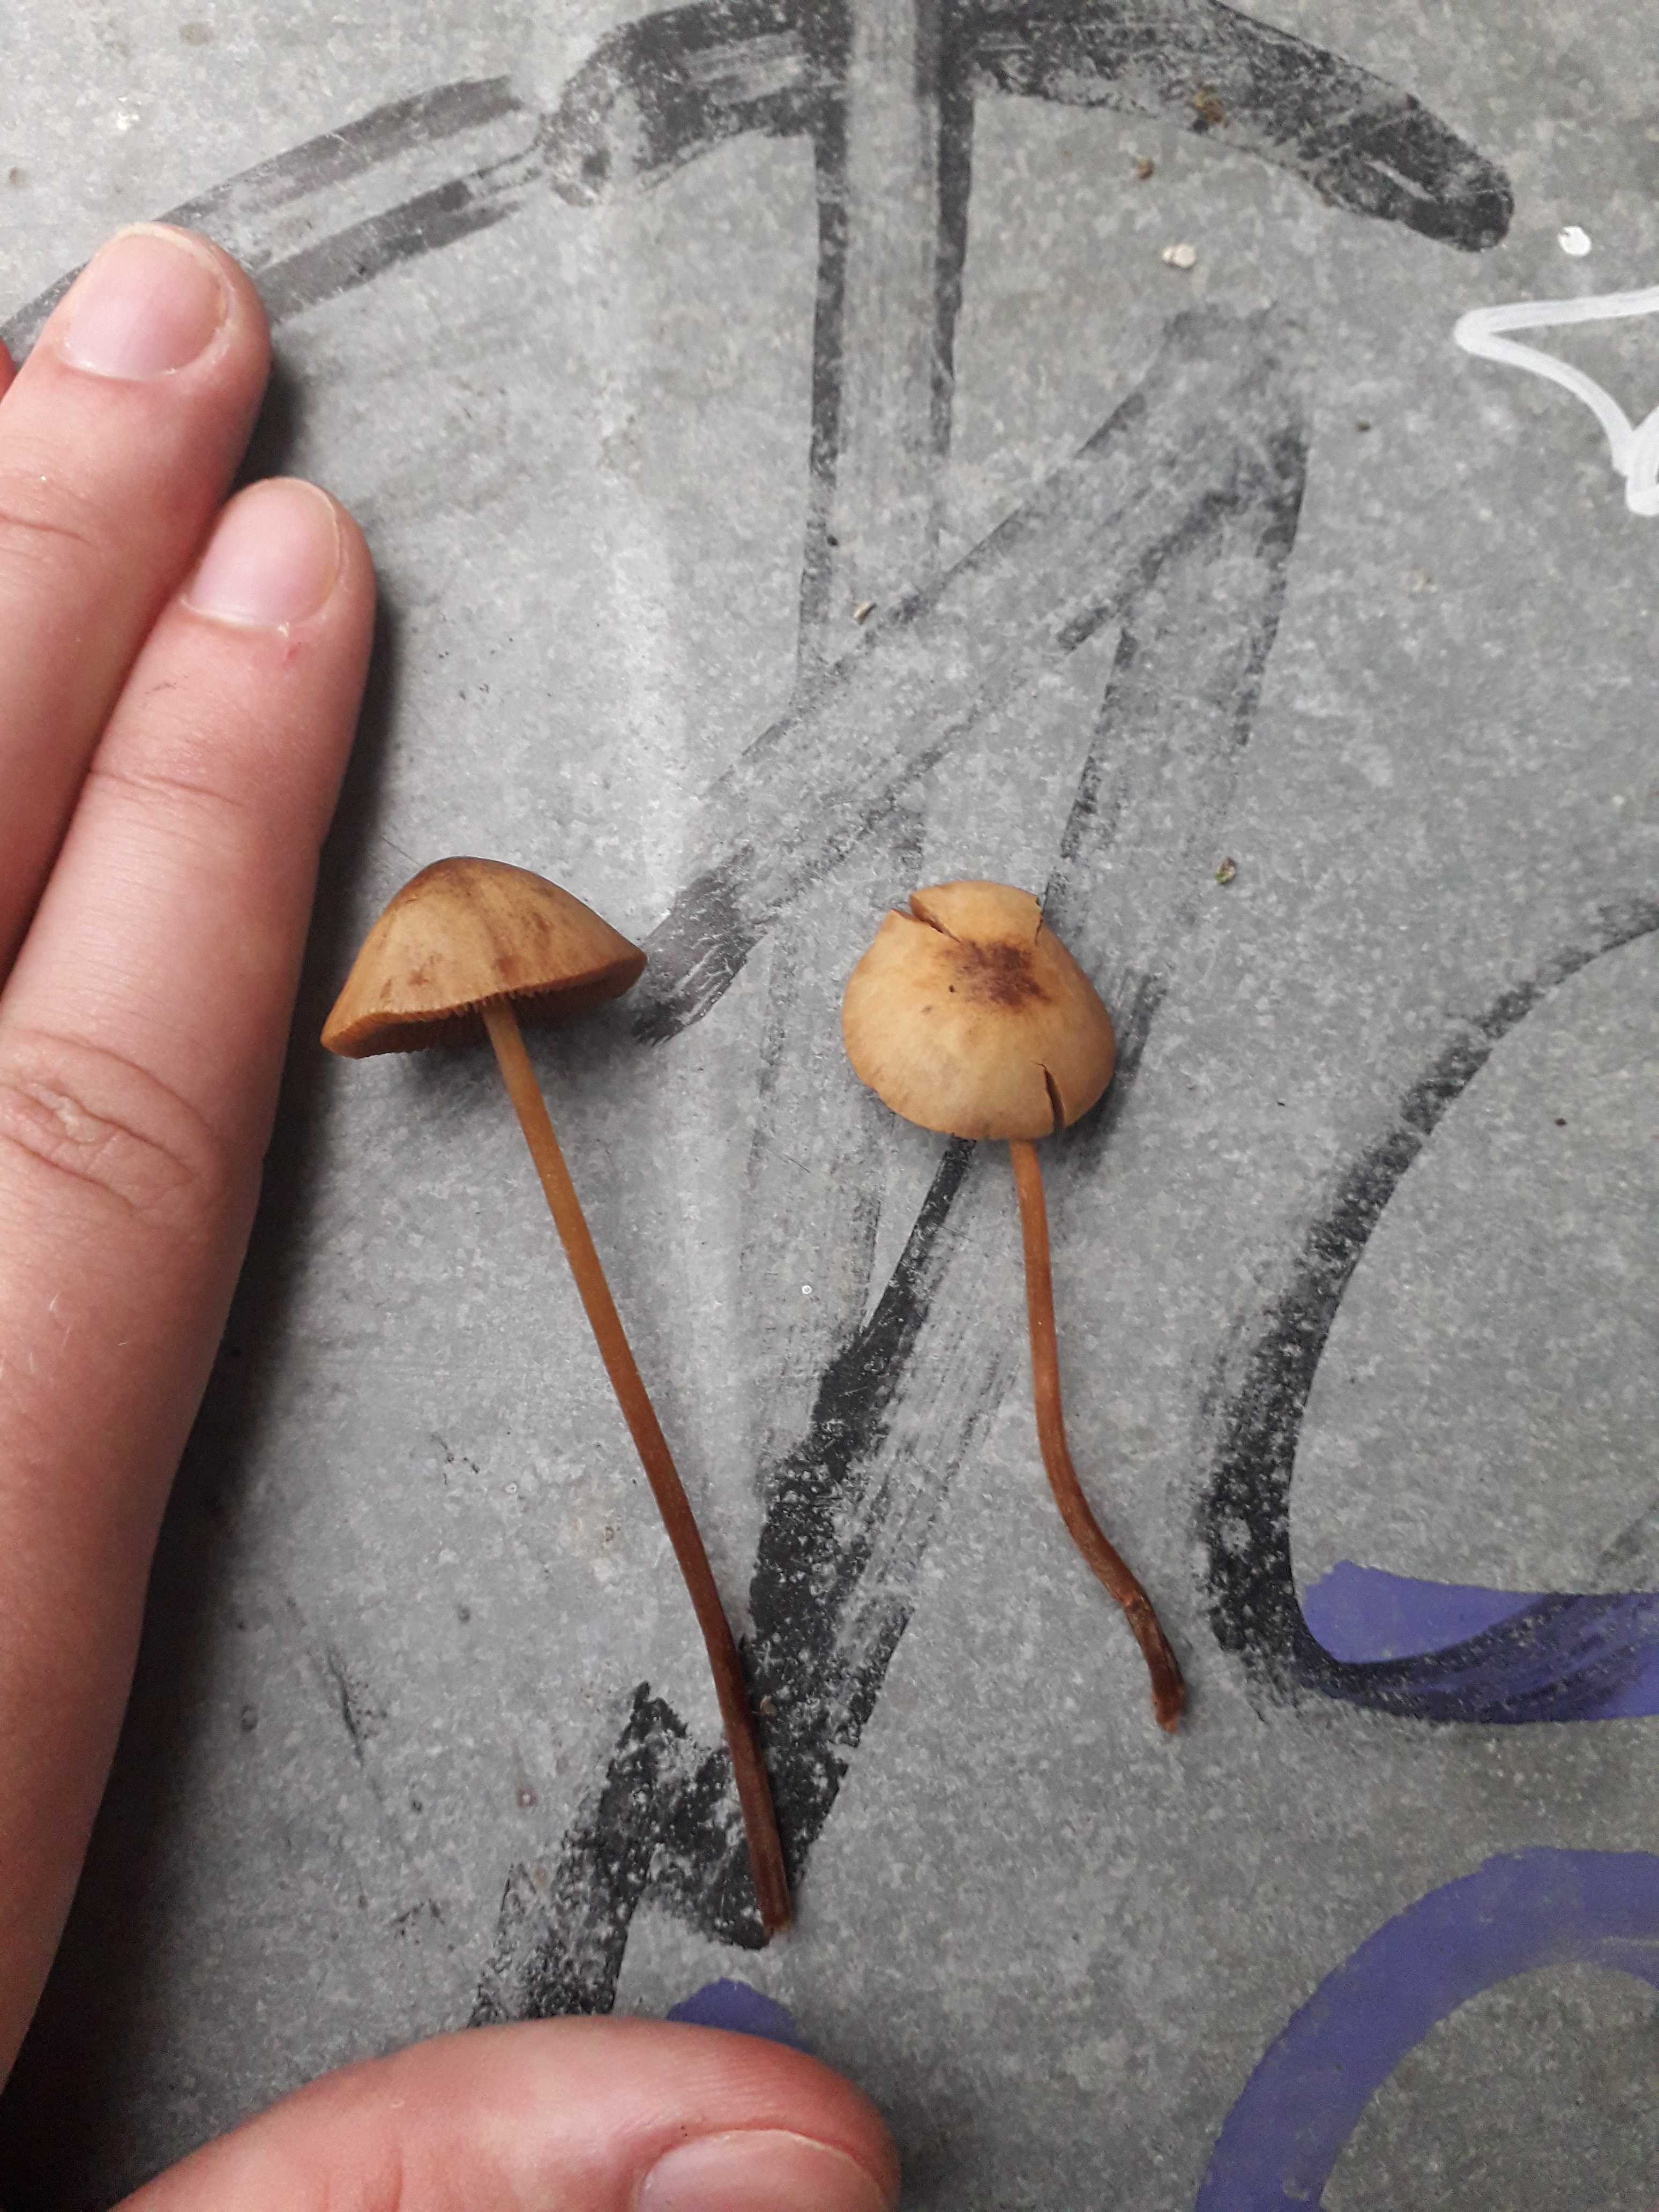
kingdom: Fungi
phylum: Basidiomycota
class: Agaricomycetes
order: Agaricales
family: Bolbitiaceae
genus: Conocybe
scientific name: Conocybe
